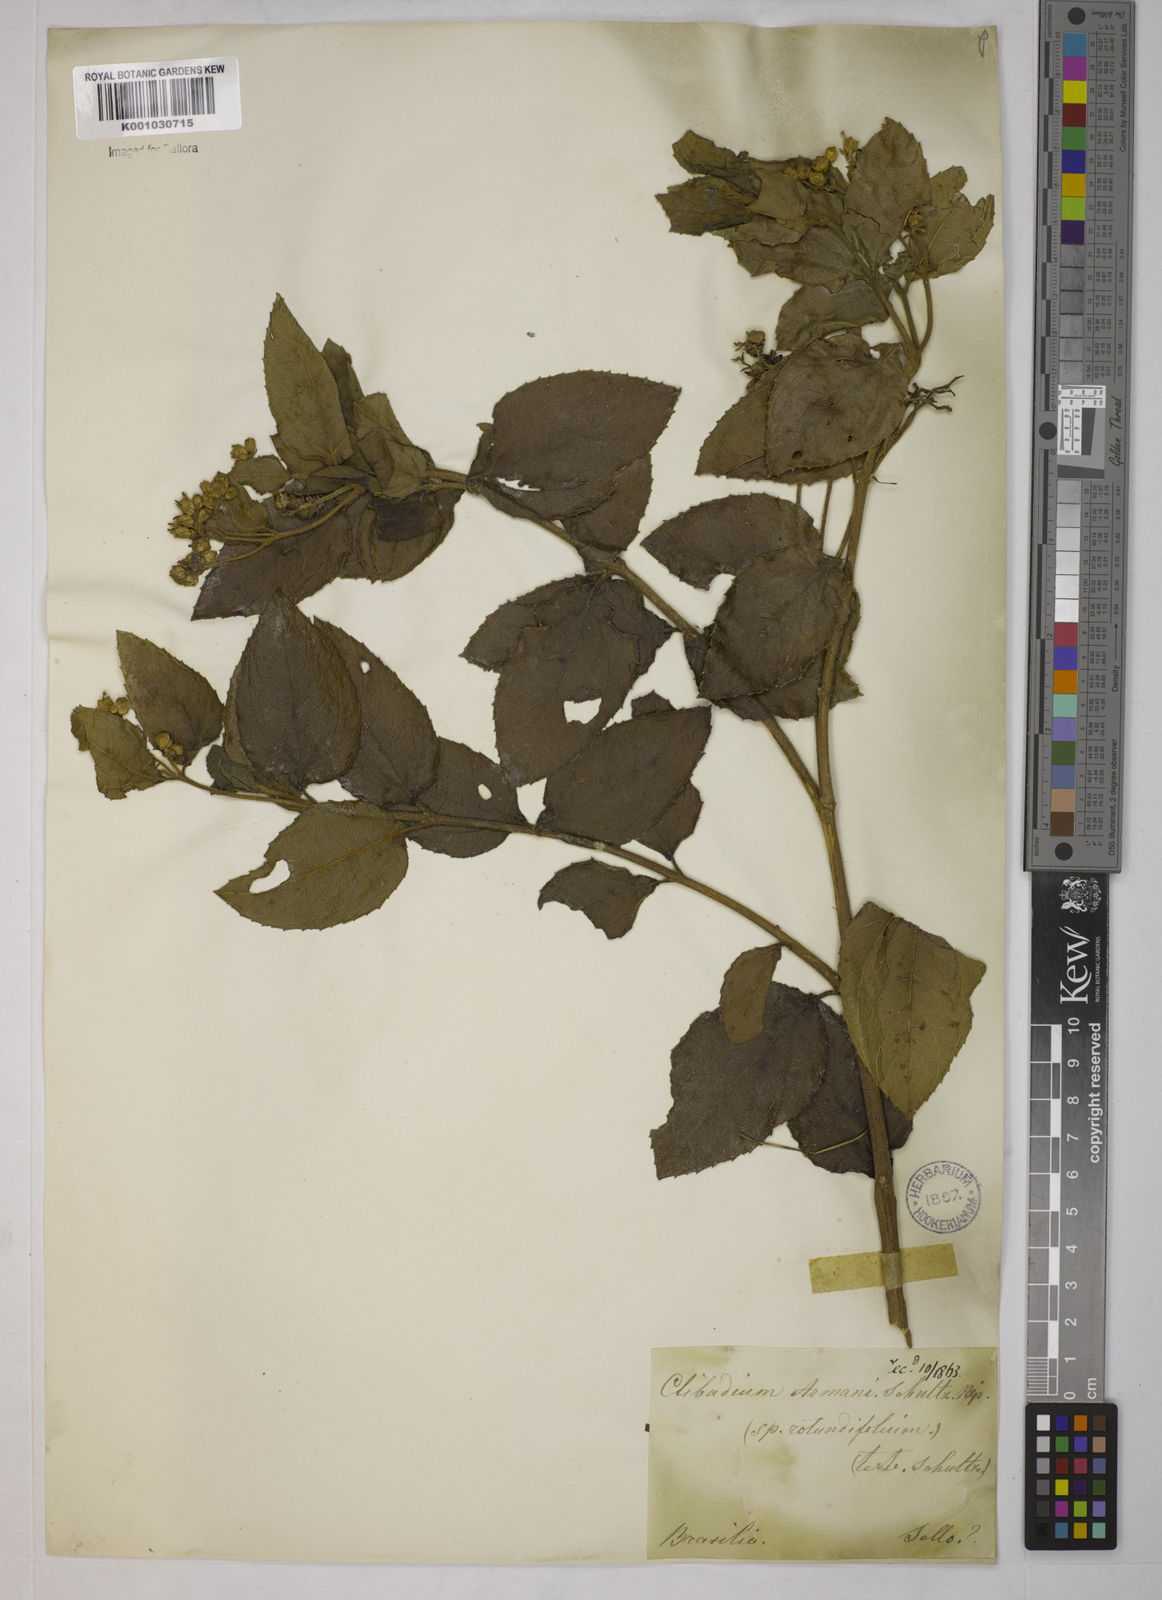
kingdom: Plantae
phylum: Tracheophyta
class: Magnoliopsida
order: Asterales
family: Asteraceae
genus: Clibadium
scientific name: Clibadium armanii
